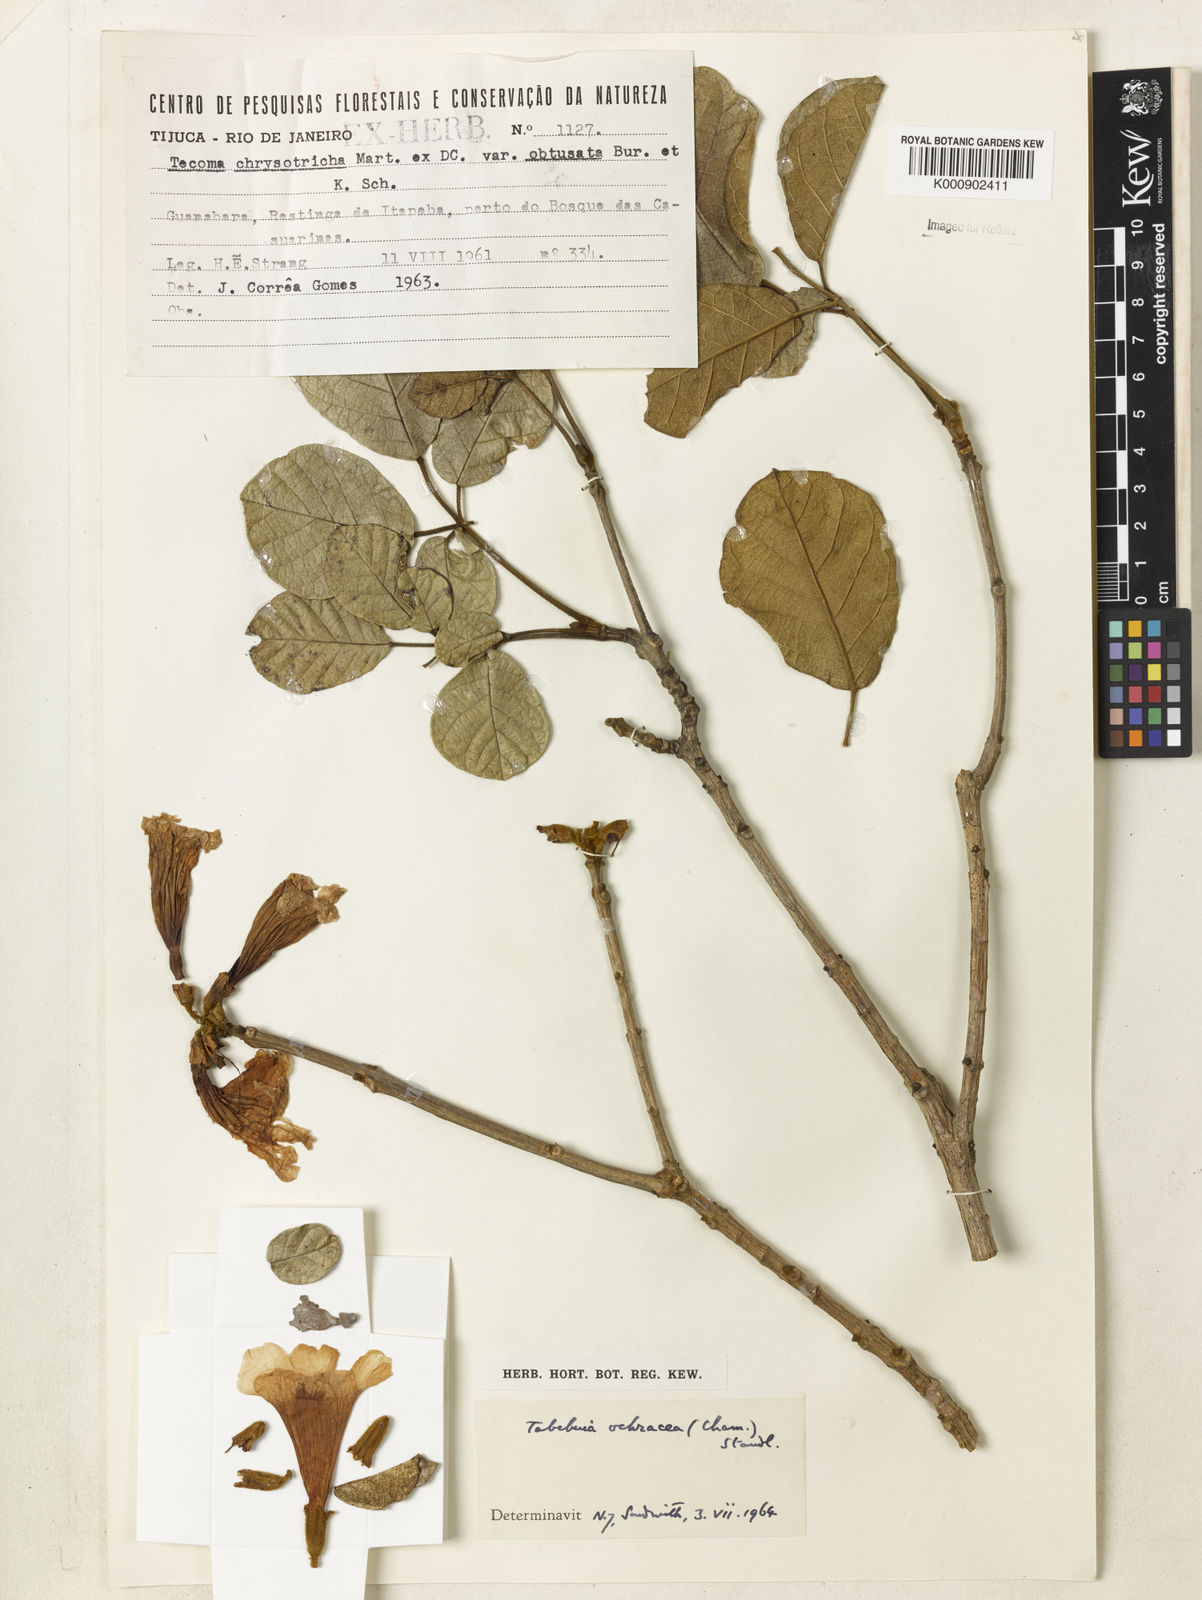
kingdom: Plantae
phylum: Tracheophyta
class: Magnoliopsida
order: Lamiales
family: Bignoniaceae
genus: Handroanthus
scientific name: Handroanthus ochraceus
